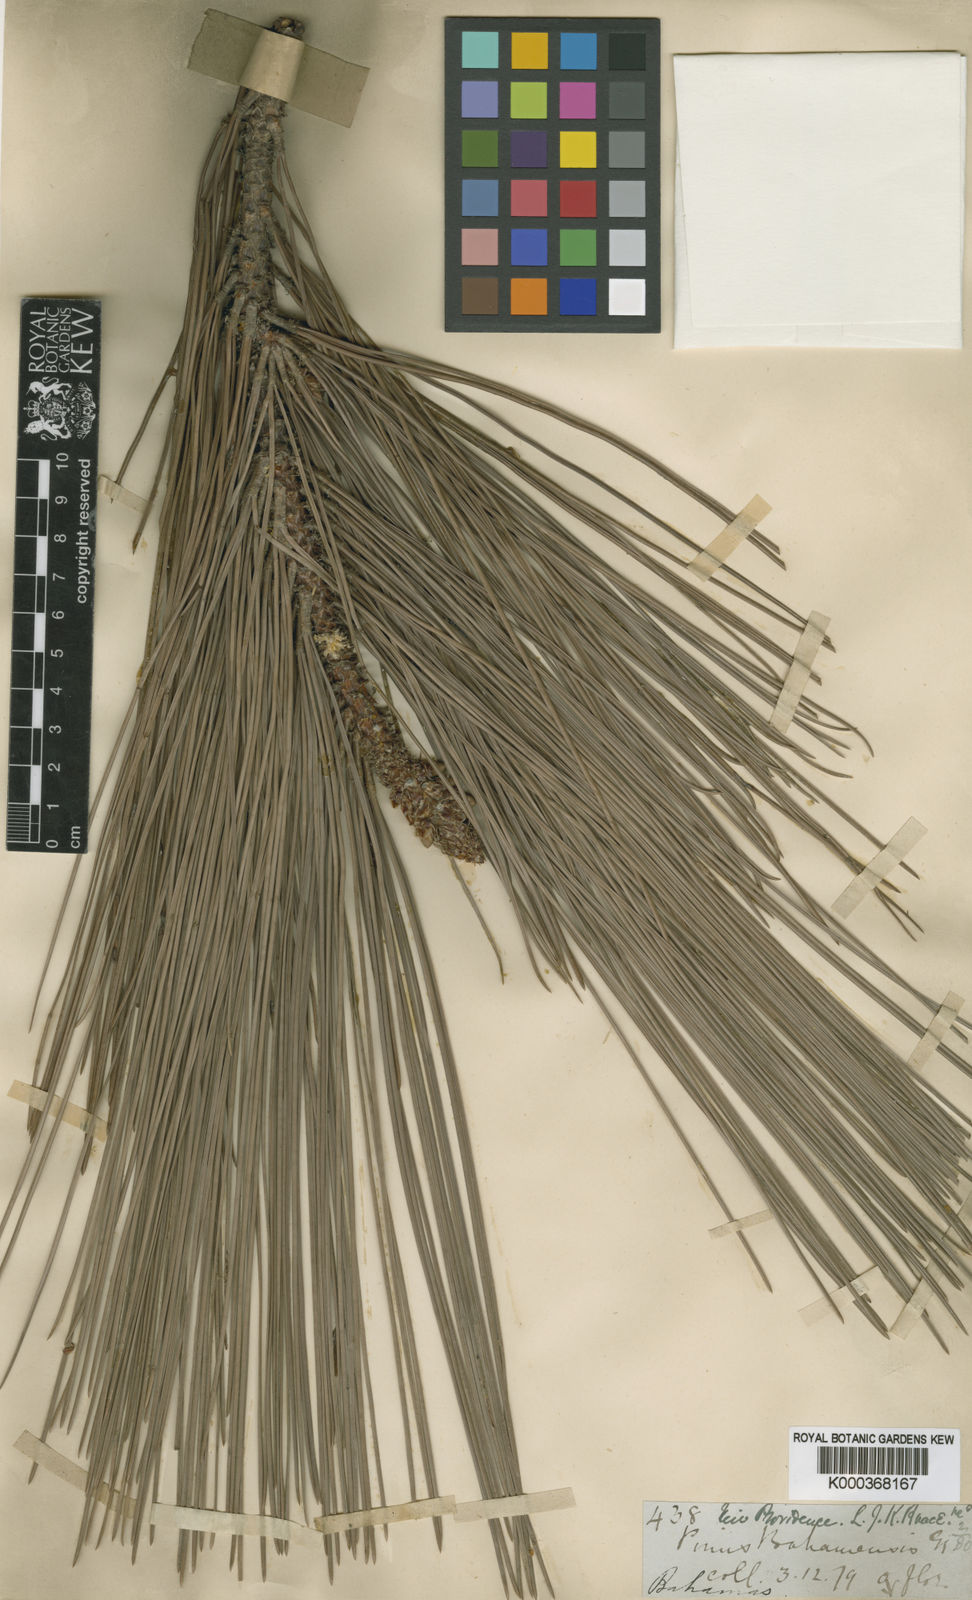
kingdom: Plantae
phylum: Tracheophyta
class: Pinopsida
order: Pinales
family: Pinaceae
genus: Pinus
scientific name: Pinus caribaea
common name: Caribbean pine
